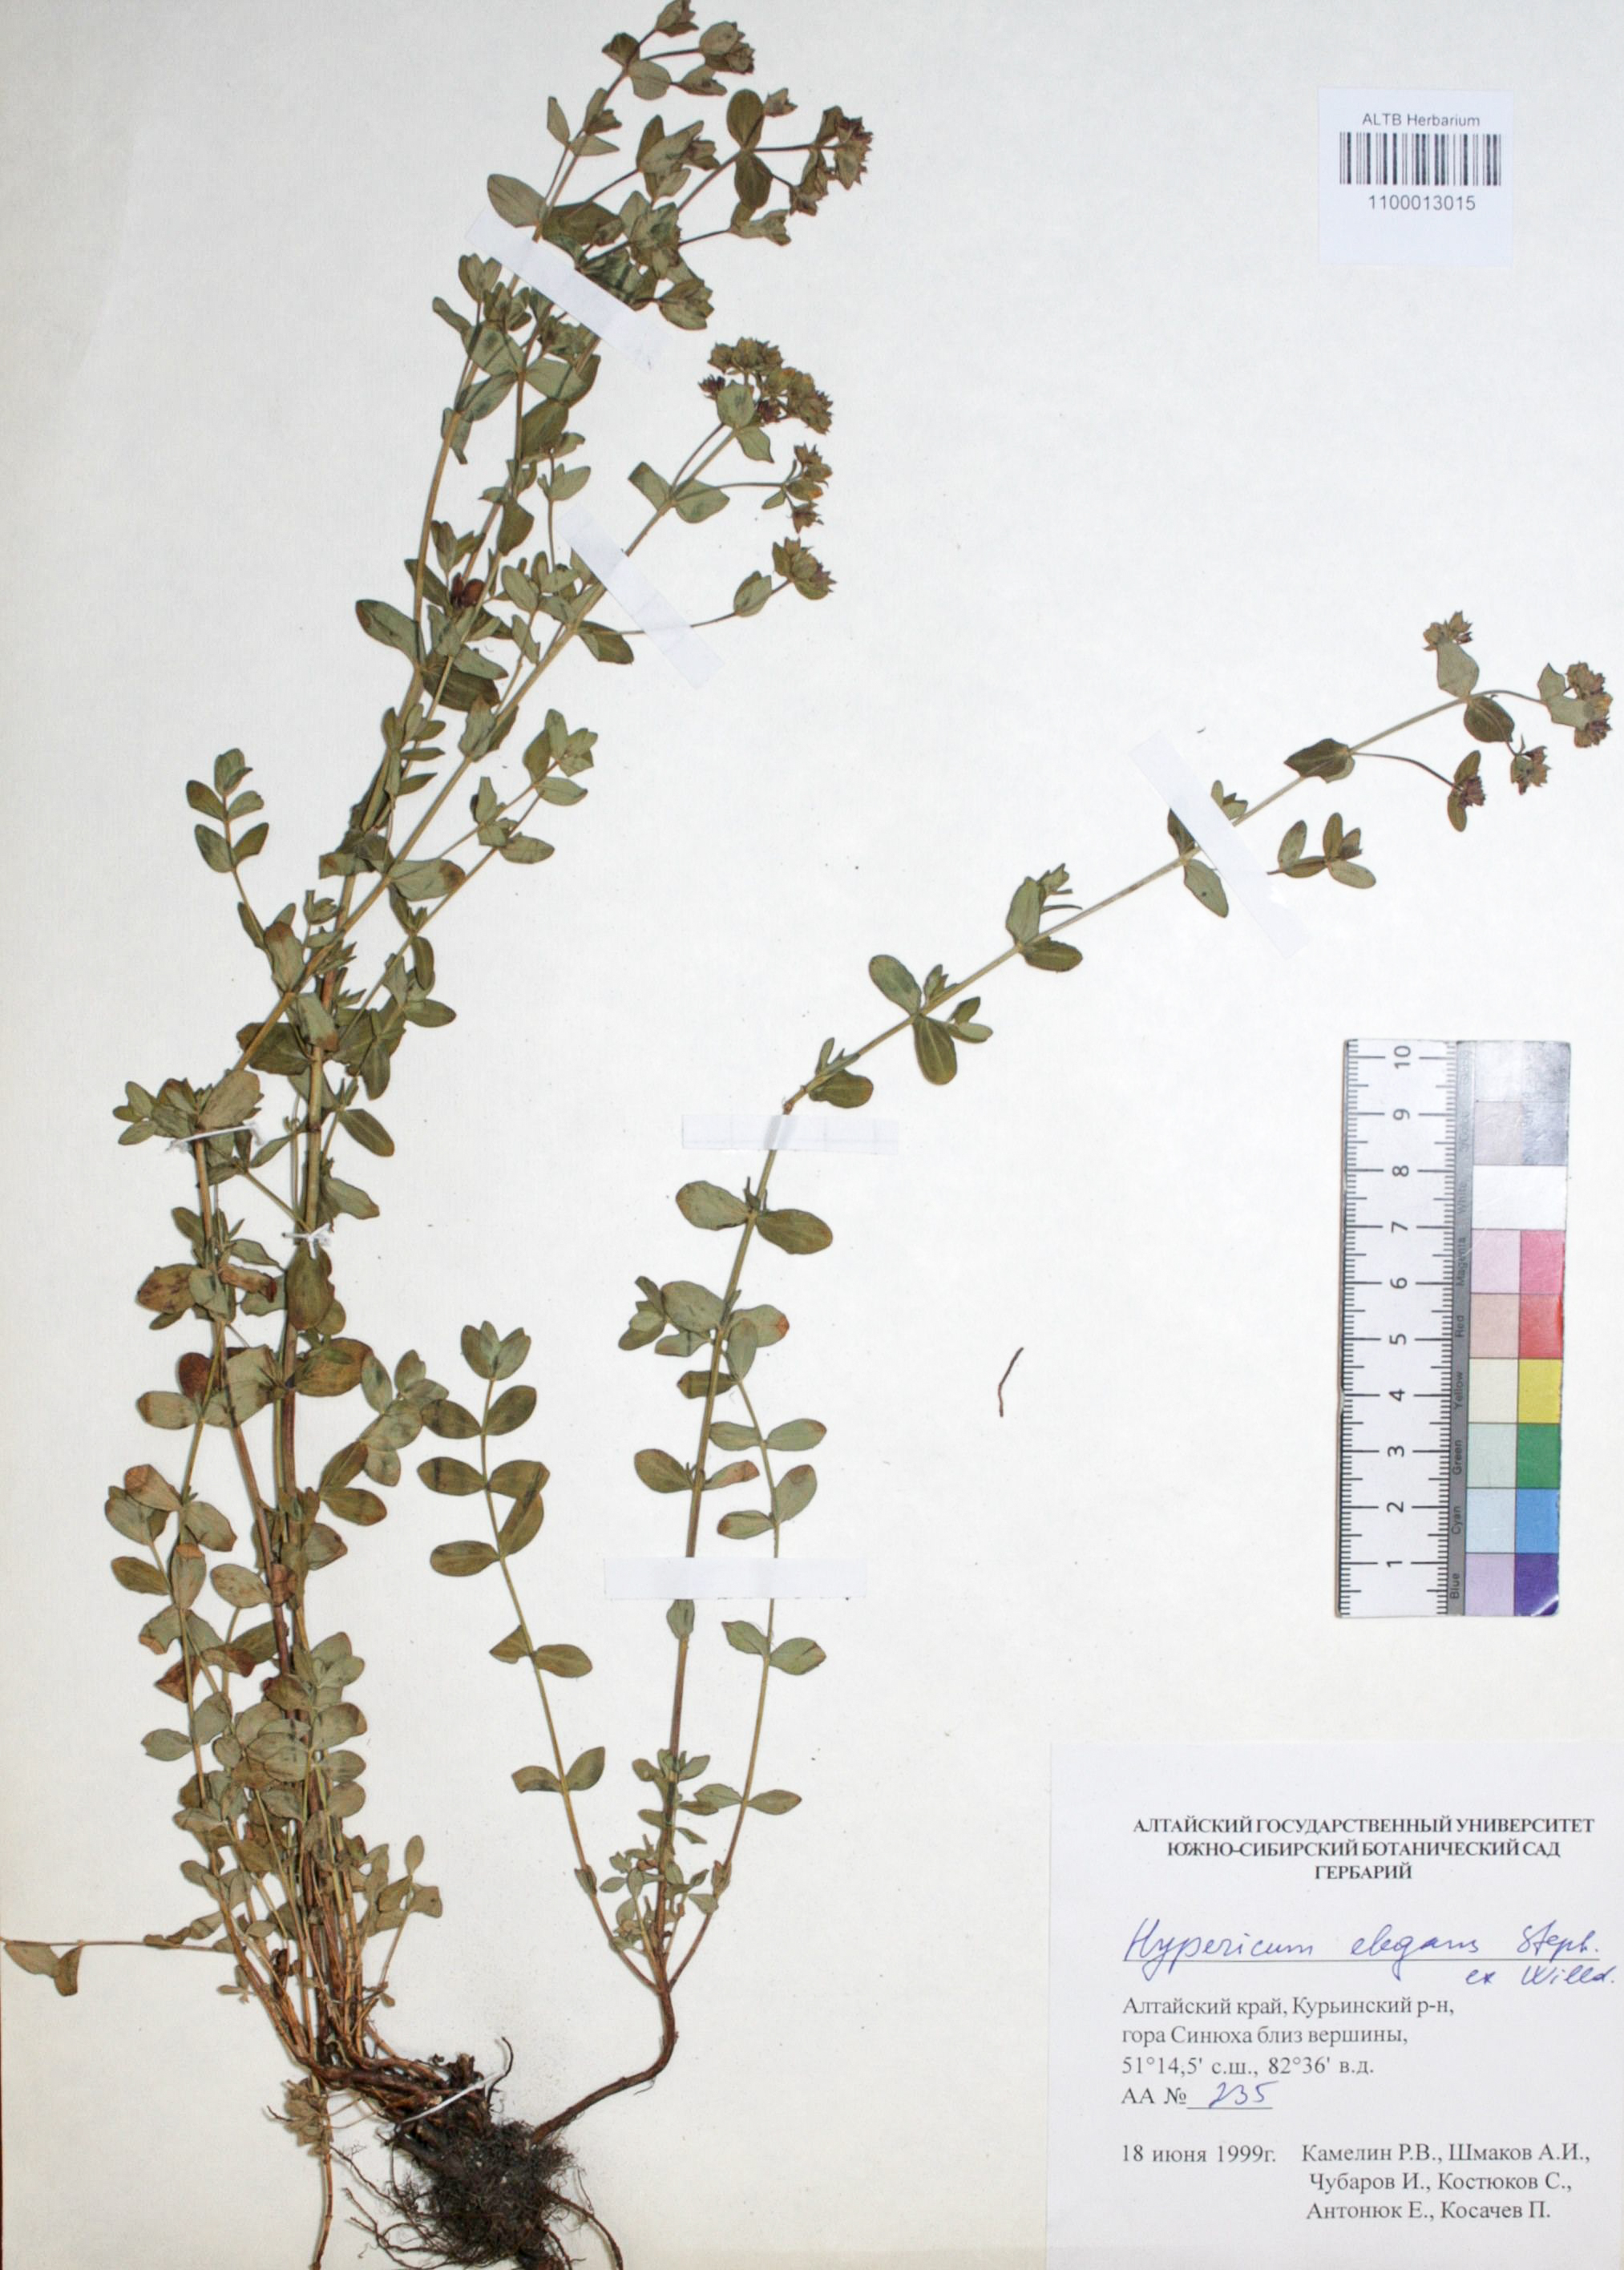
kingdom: Plantae
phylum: Tracheophyta
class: Magnoliopsida
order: Malpighiales
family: Hypericaceae
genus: Hypericum
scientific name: Hypericum elegans
